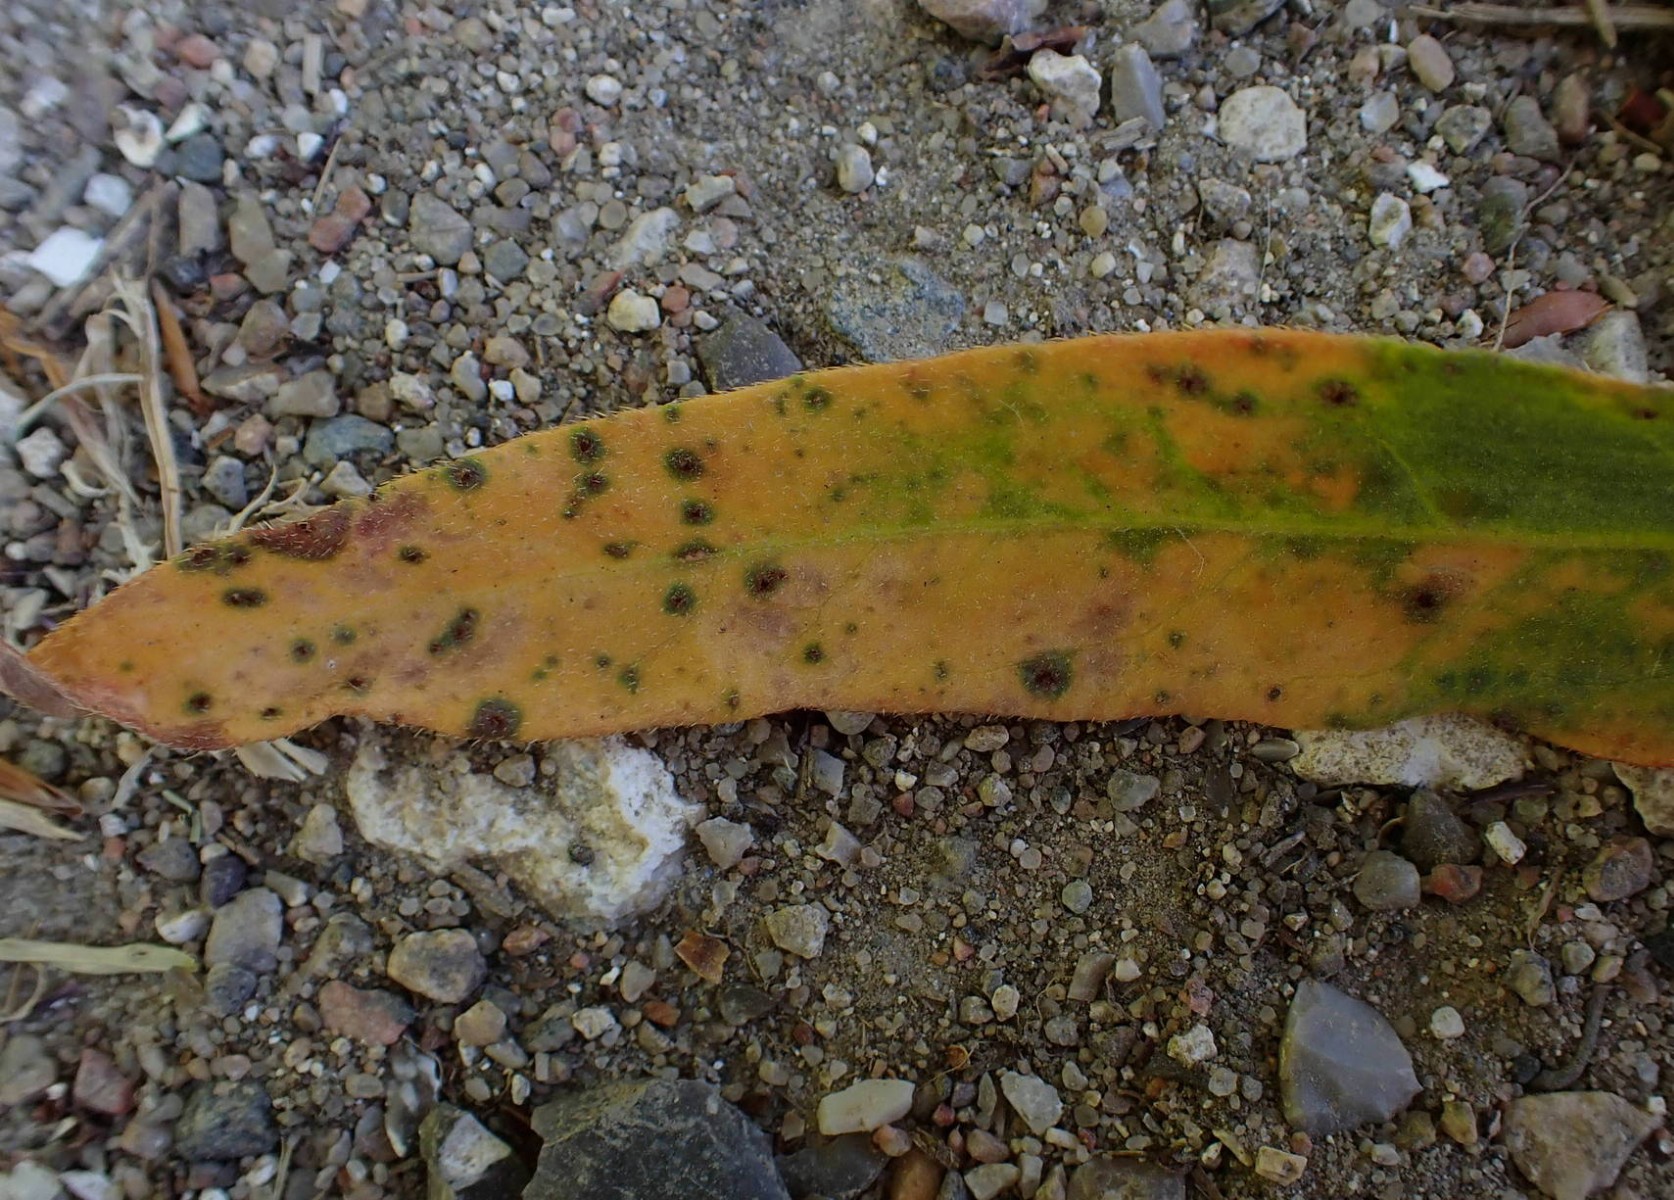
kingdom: Fungi
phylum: Basidiomycota
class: Pucciniomycetes
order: Pucciniales
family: Pucciniaceae
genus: Puccinia
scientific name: Puccinia polygoni-amphibii
